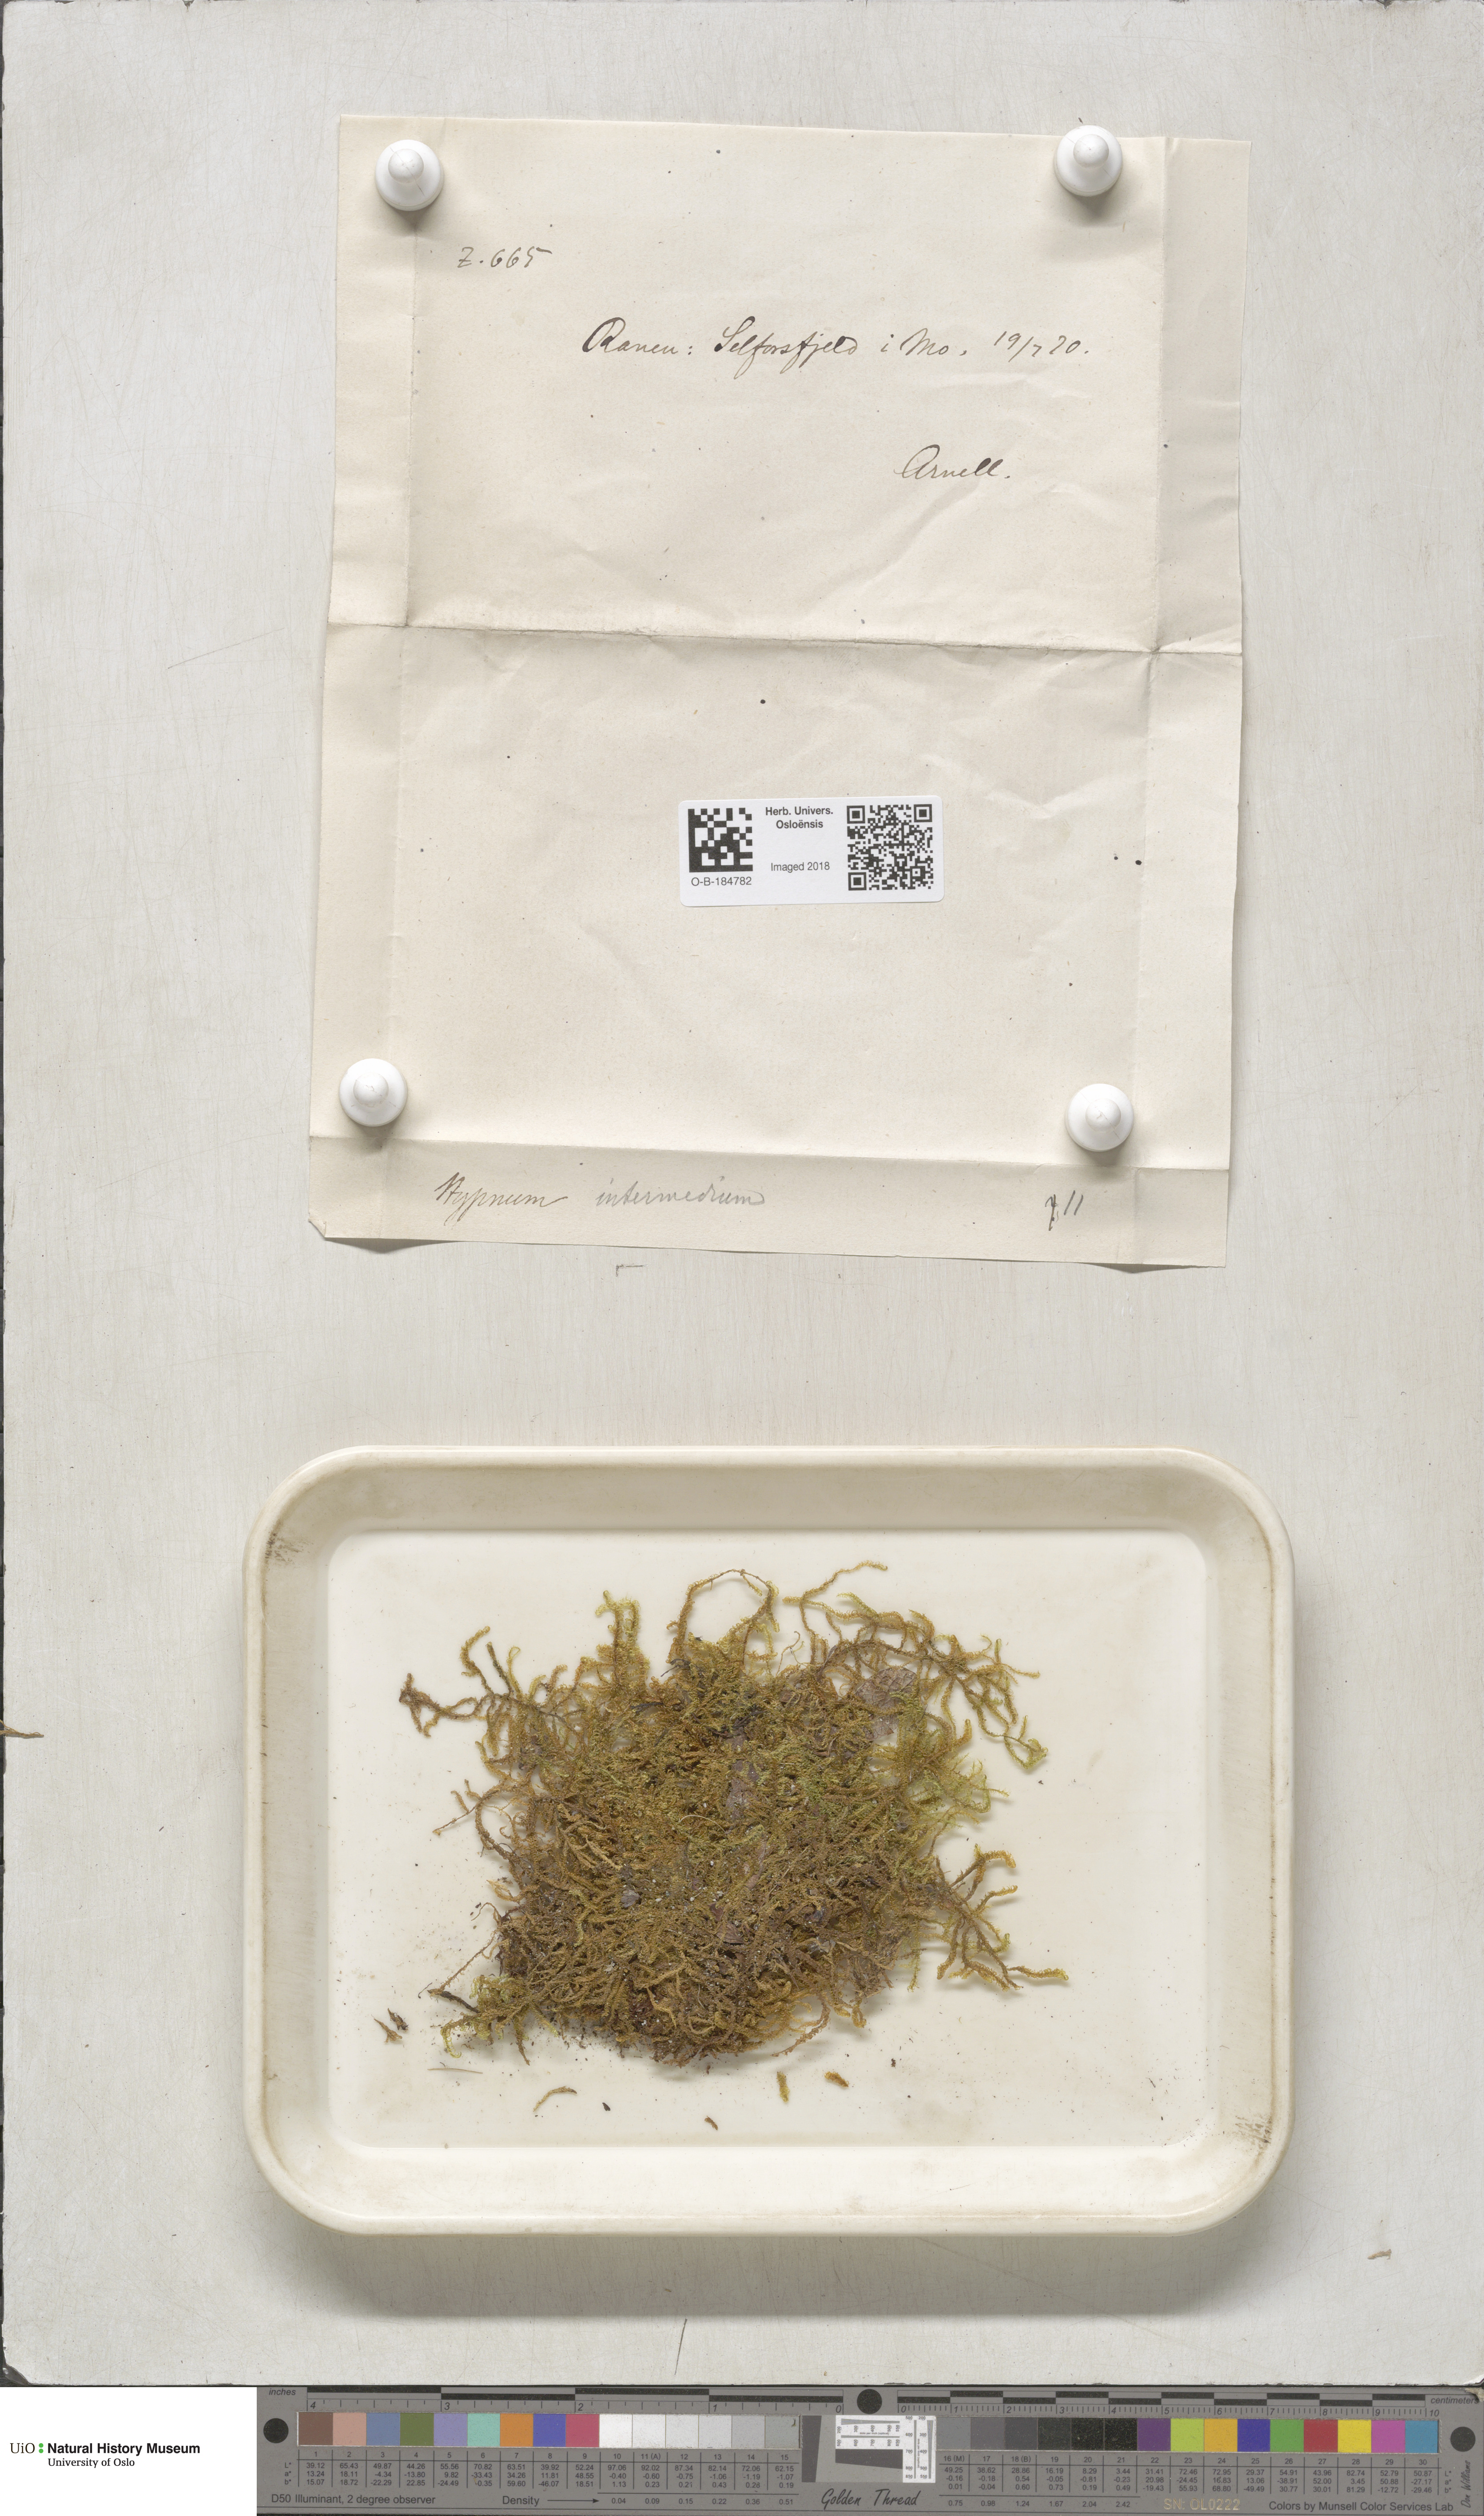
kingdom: Plantae
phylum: Bryophyta
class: Bryopsida
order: Hypnales
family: Scorpidiaceae
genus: Scorpidium
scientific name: Scorpidium cossonii
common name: Cosson's hook moss
